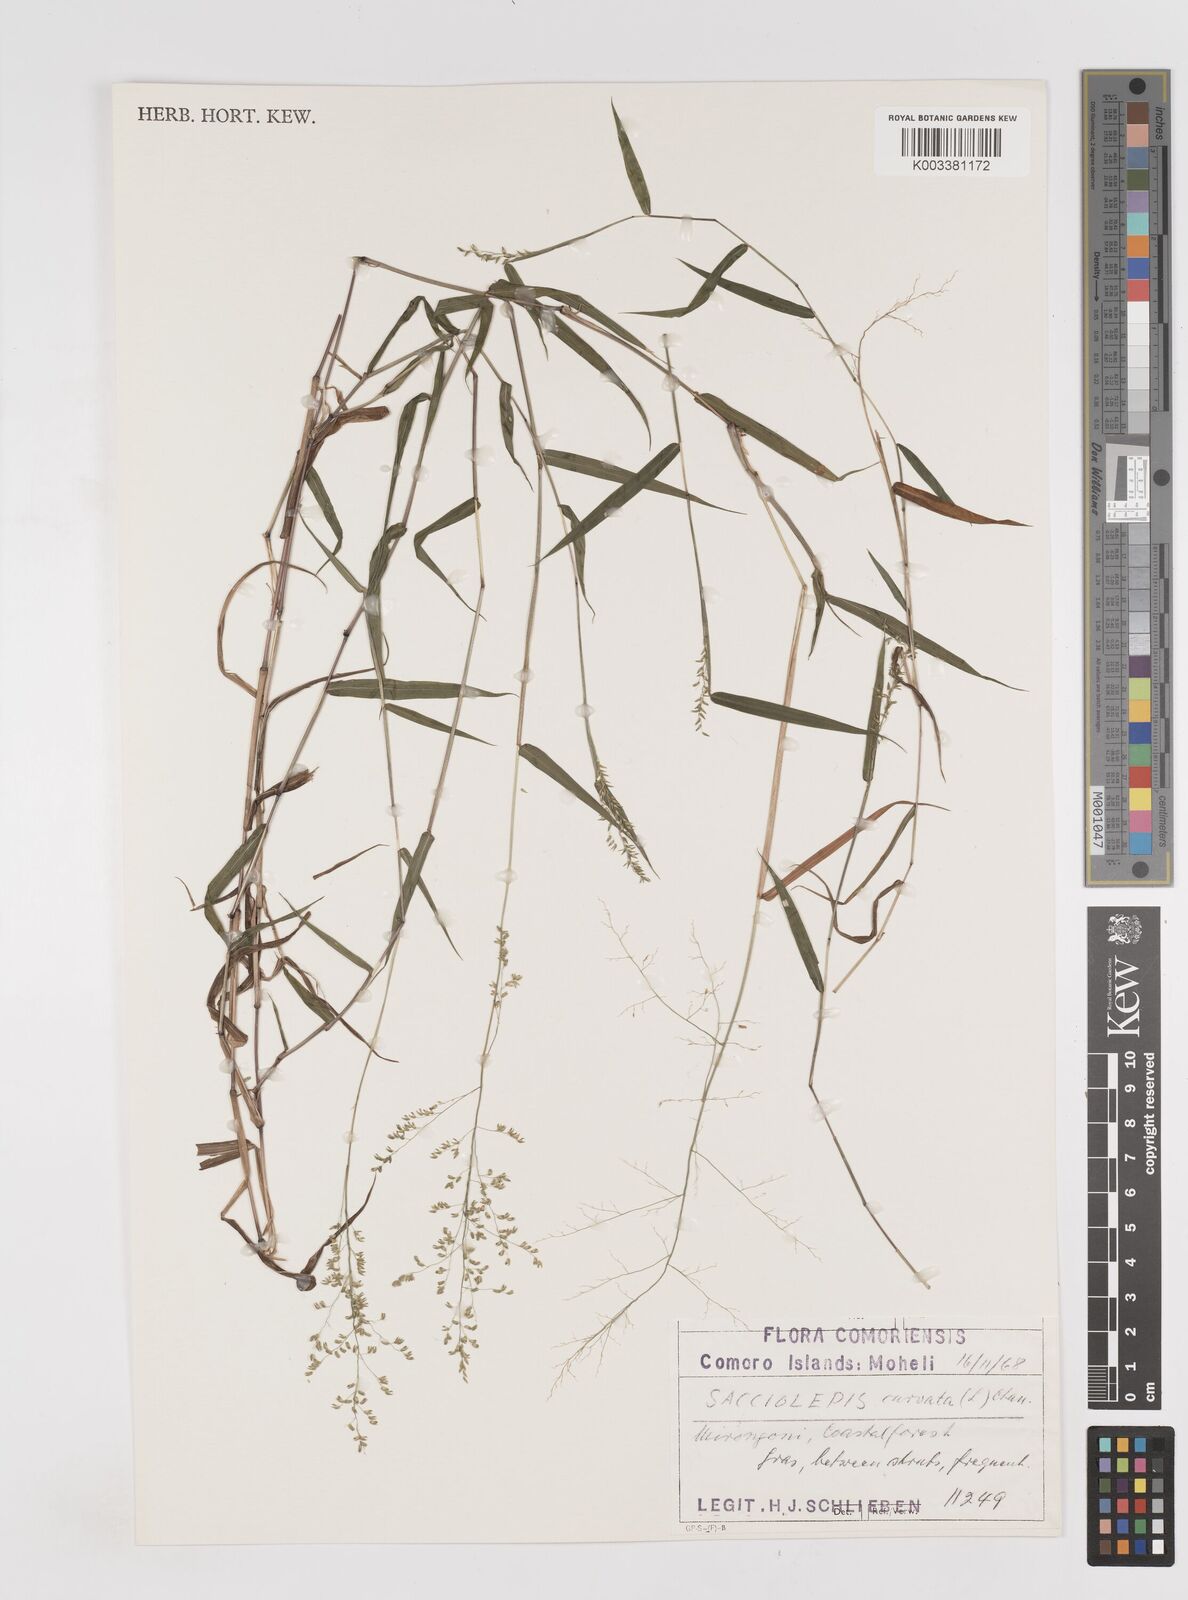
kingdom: Plantae
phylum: Tracheophyta
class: Liliopsida
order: Poales
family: Poaceae
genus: Sacciolepis
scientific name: Sacciolepis curvata
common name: Forest hood grass
